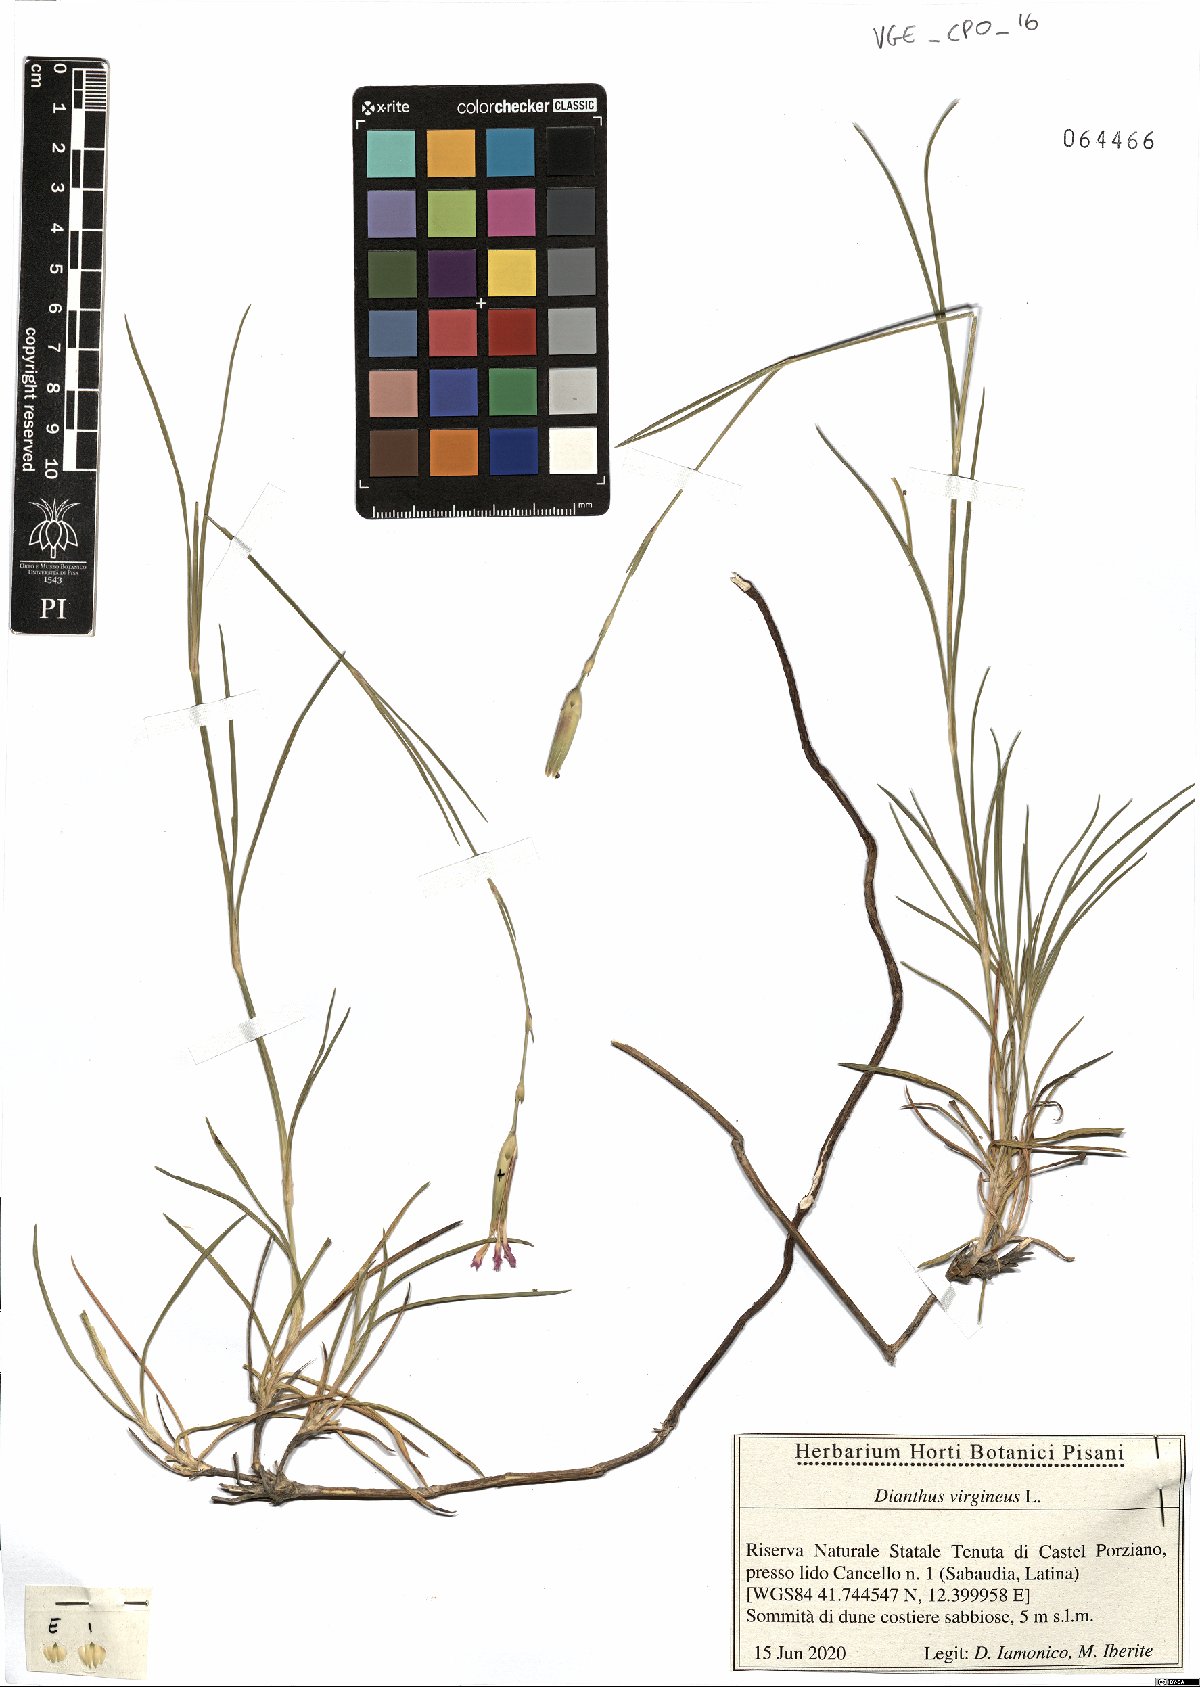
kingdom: Plantae
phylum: Tracheophyta
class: Magnoliopsida
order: Caryophyllales
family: Caryophyllaceae
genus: Dianthus
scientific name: Dianthus virgineus
